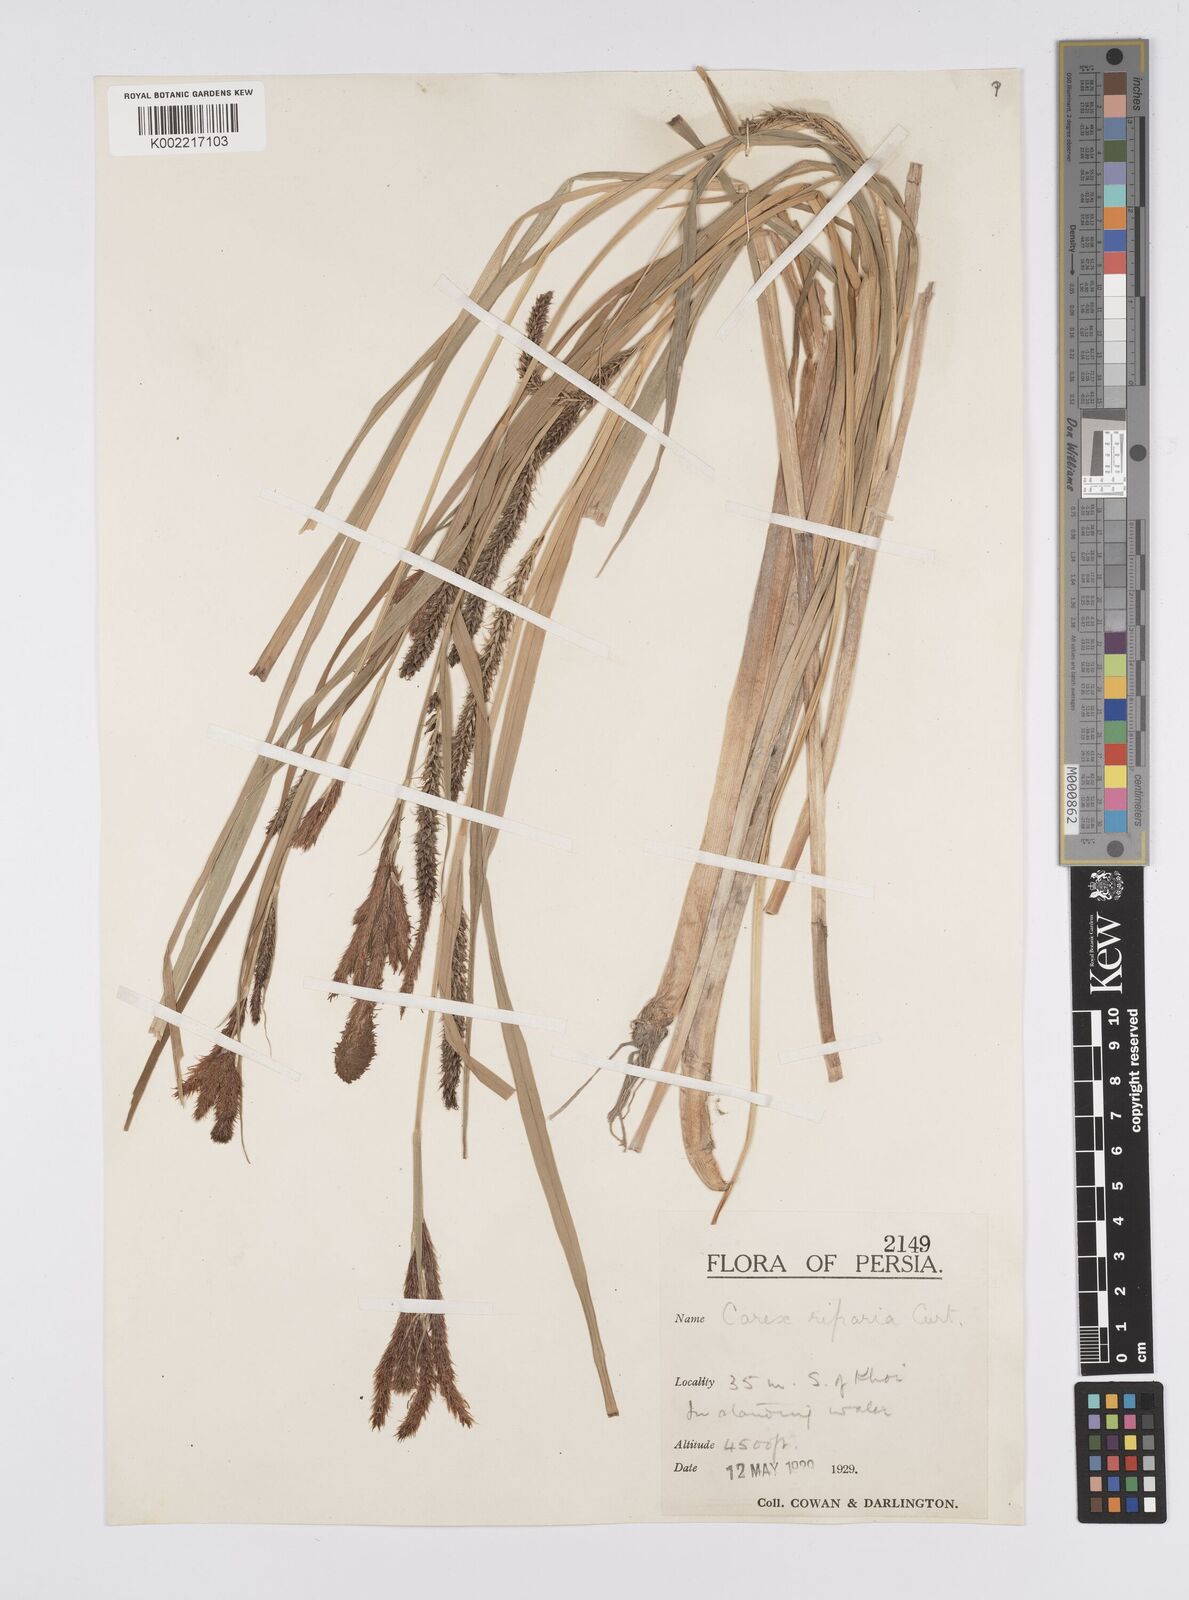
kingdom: Plantae
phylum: Tracheophyta
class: Liliopsida
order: Poales
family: Cyperaceae
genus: Carex
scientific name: Carex riparia
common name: Greater pond-sedge
